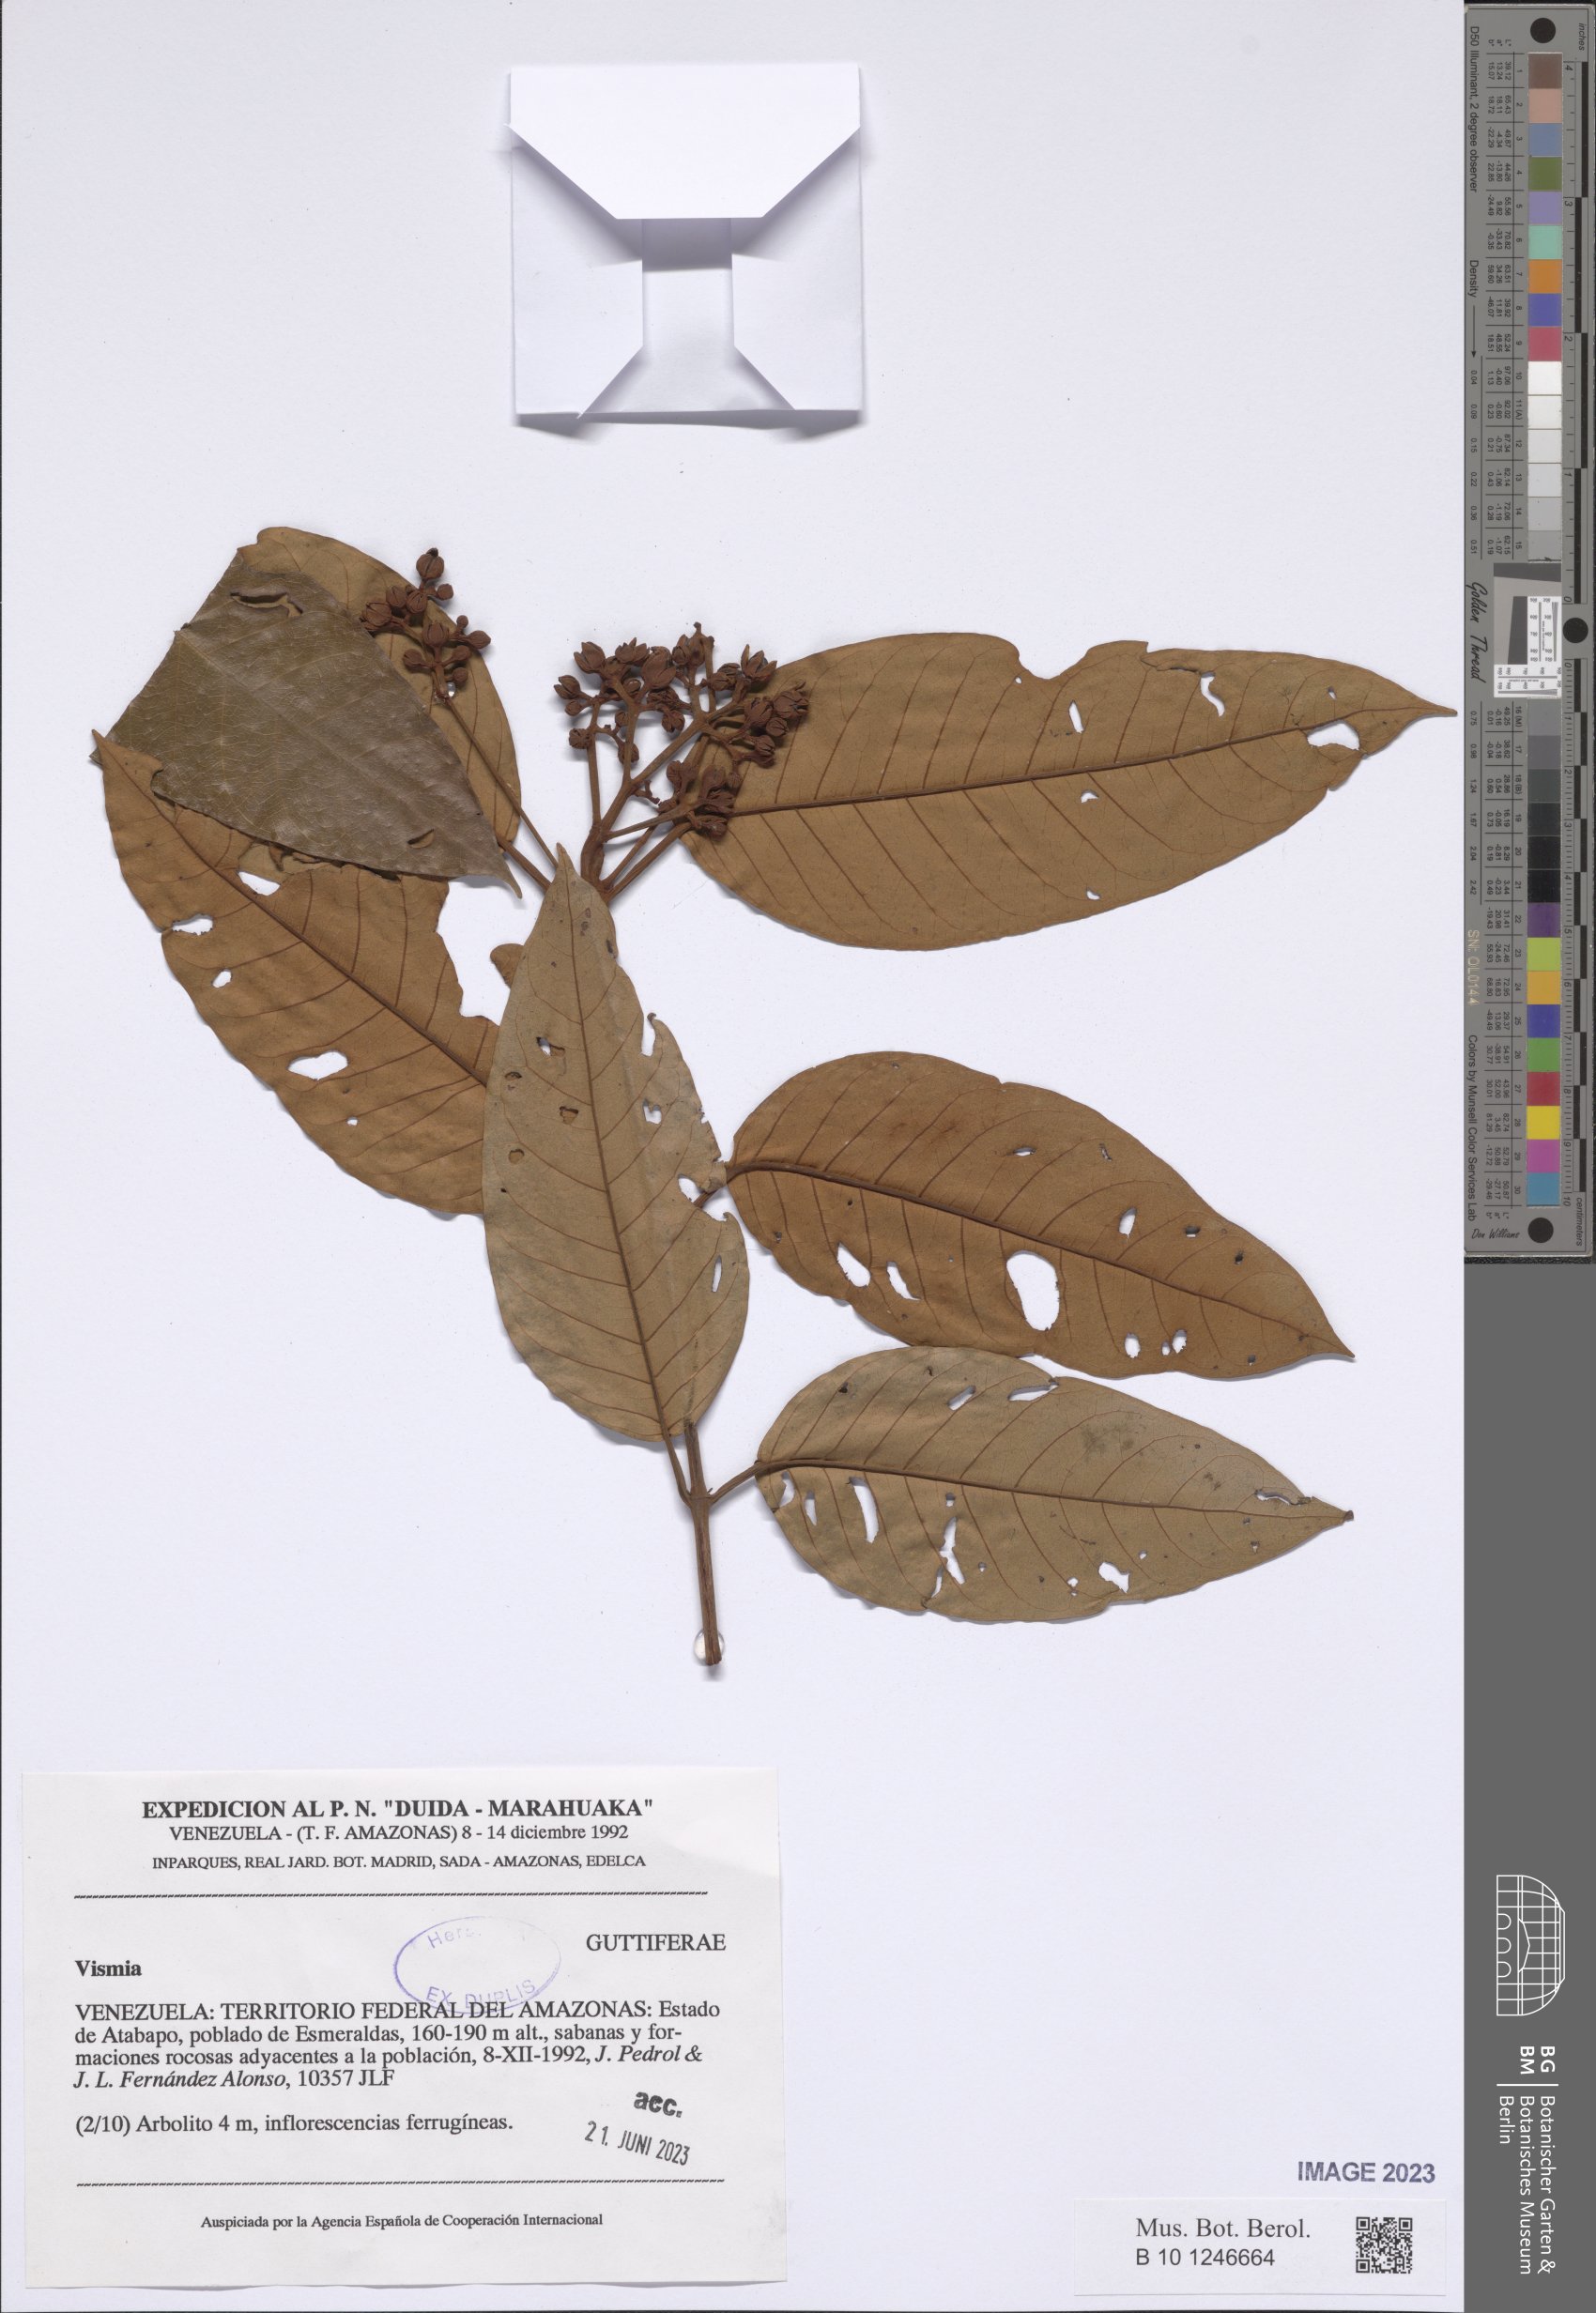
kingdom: Plantae
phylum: Tracheophyta
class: Magnoliopsida
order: Malpighiales
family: Hypericaceae
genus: Vismia
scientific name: Vismia
